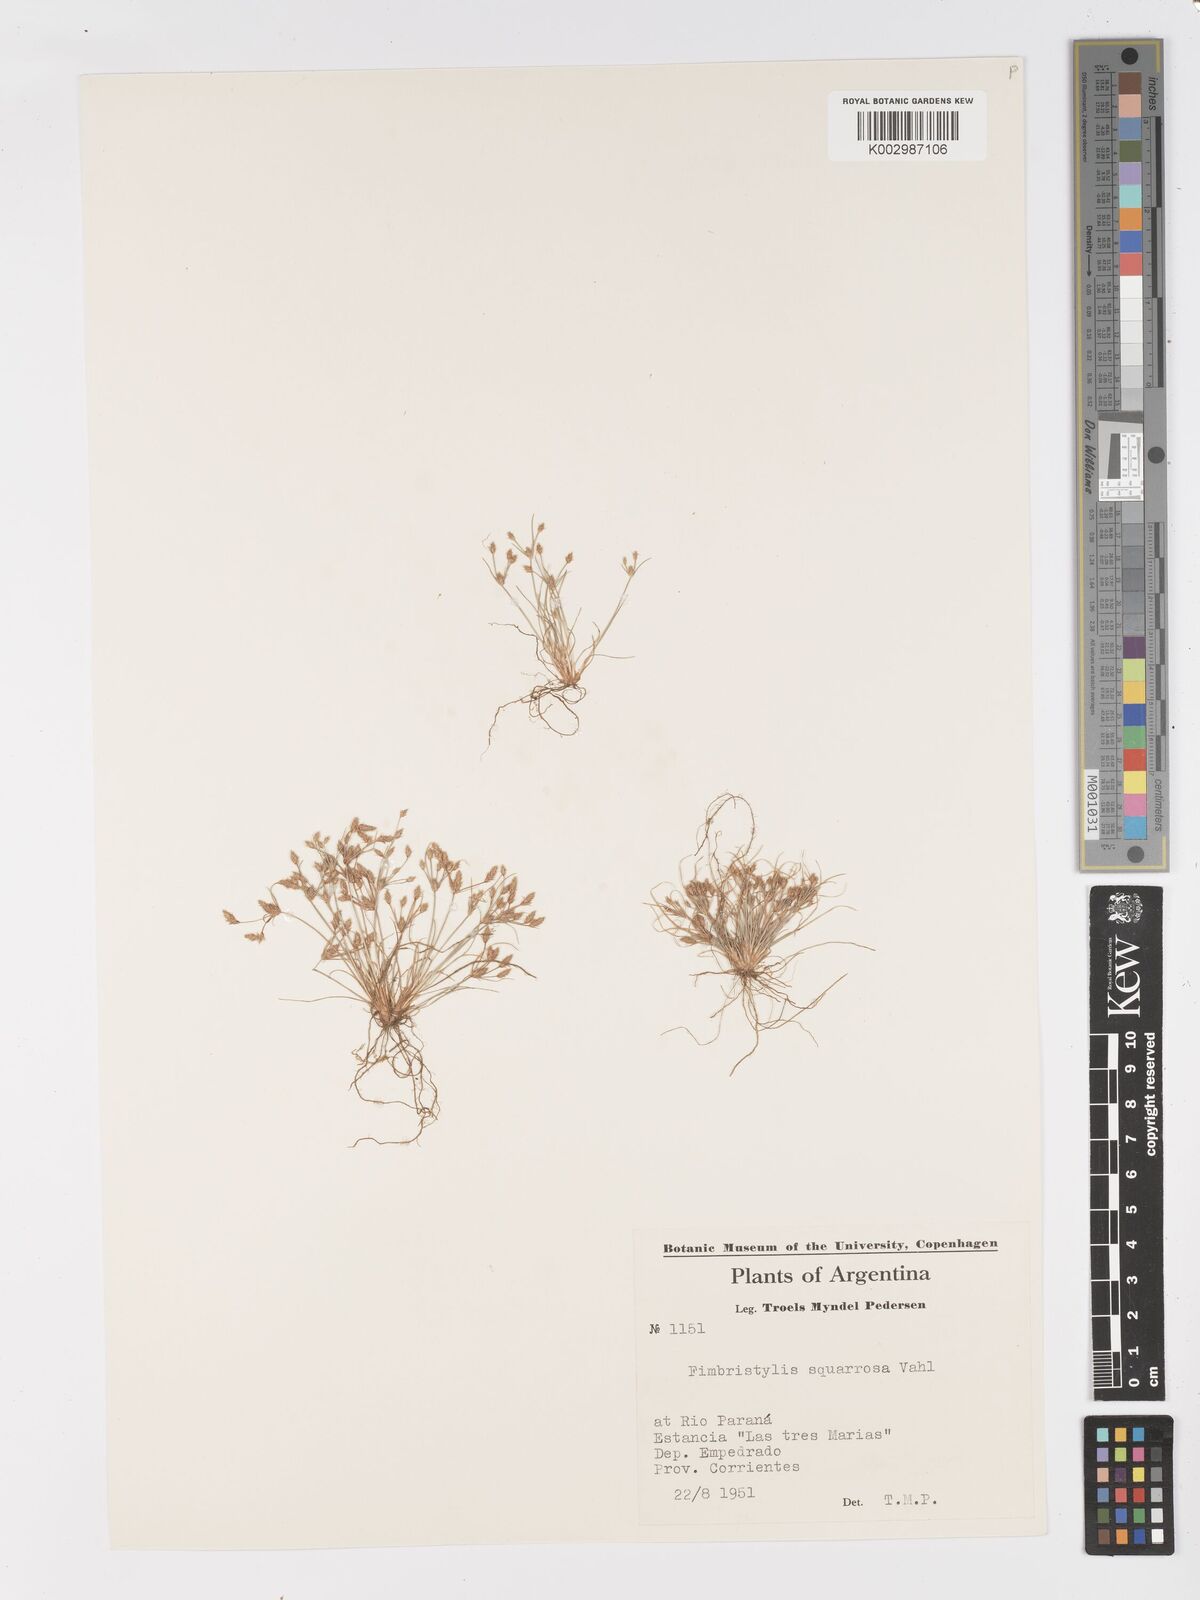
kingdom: Plantae
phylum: Tracheophyta
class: Liliopsida
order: Poales
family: Cyperaceae
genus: Fimbristylis
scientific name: Fimbristylis squarrosa
